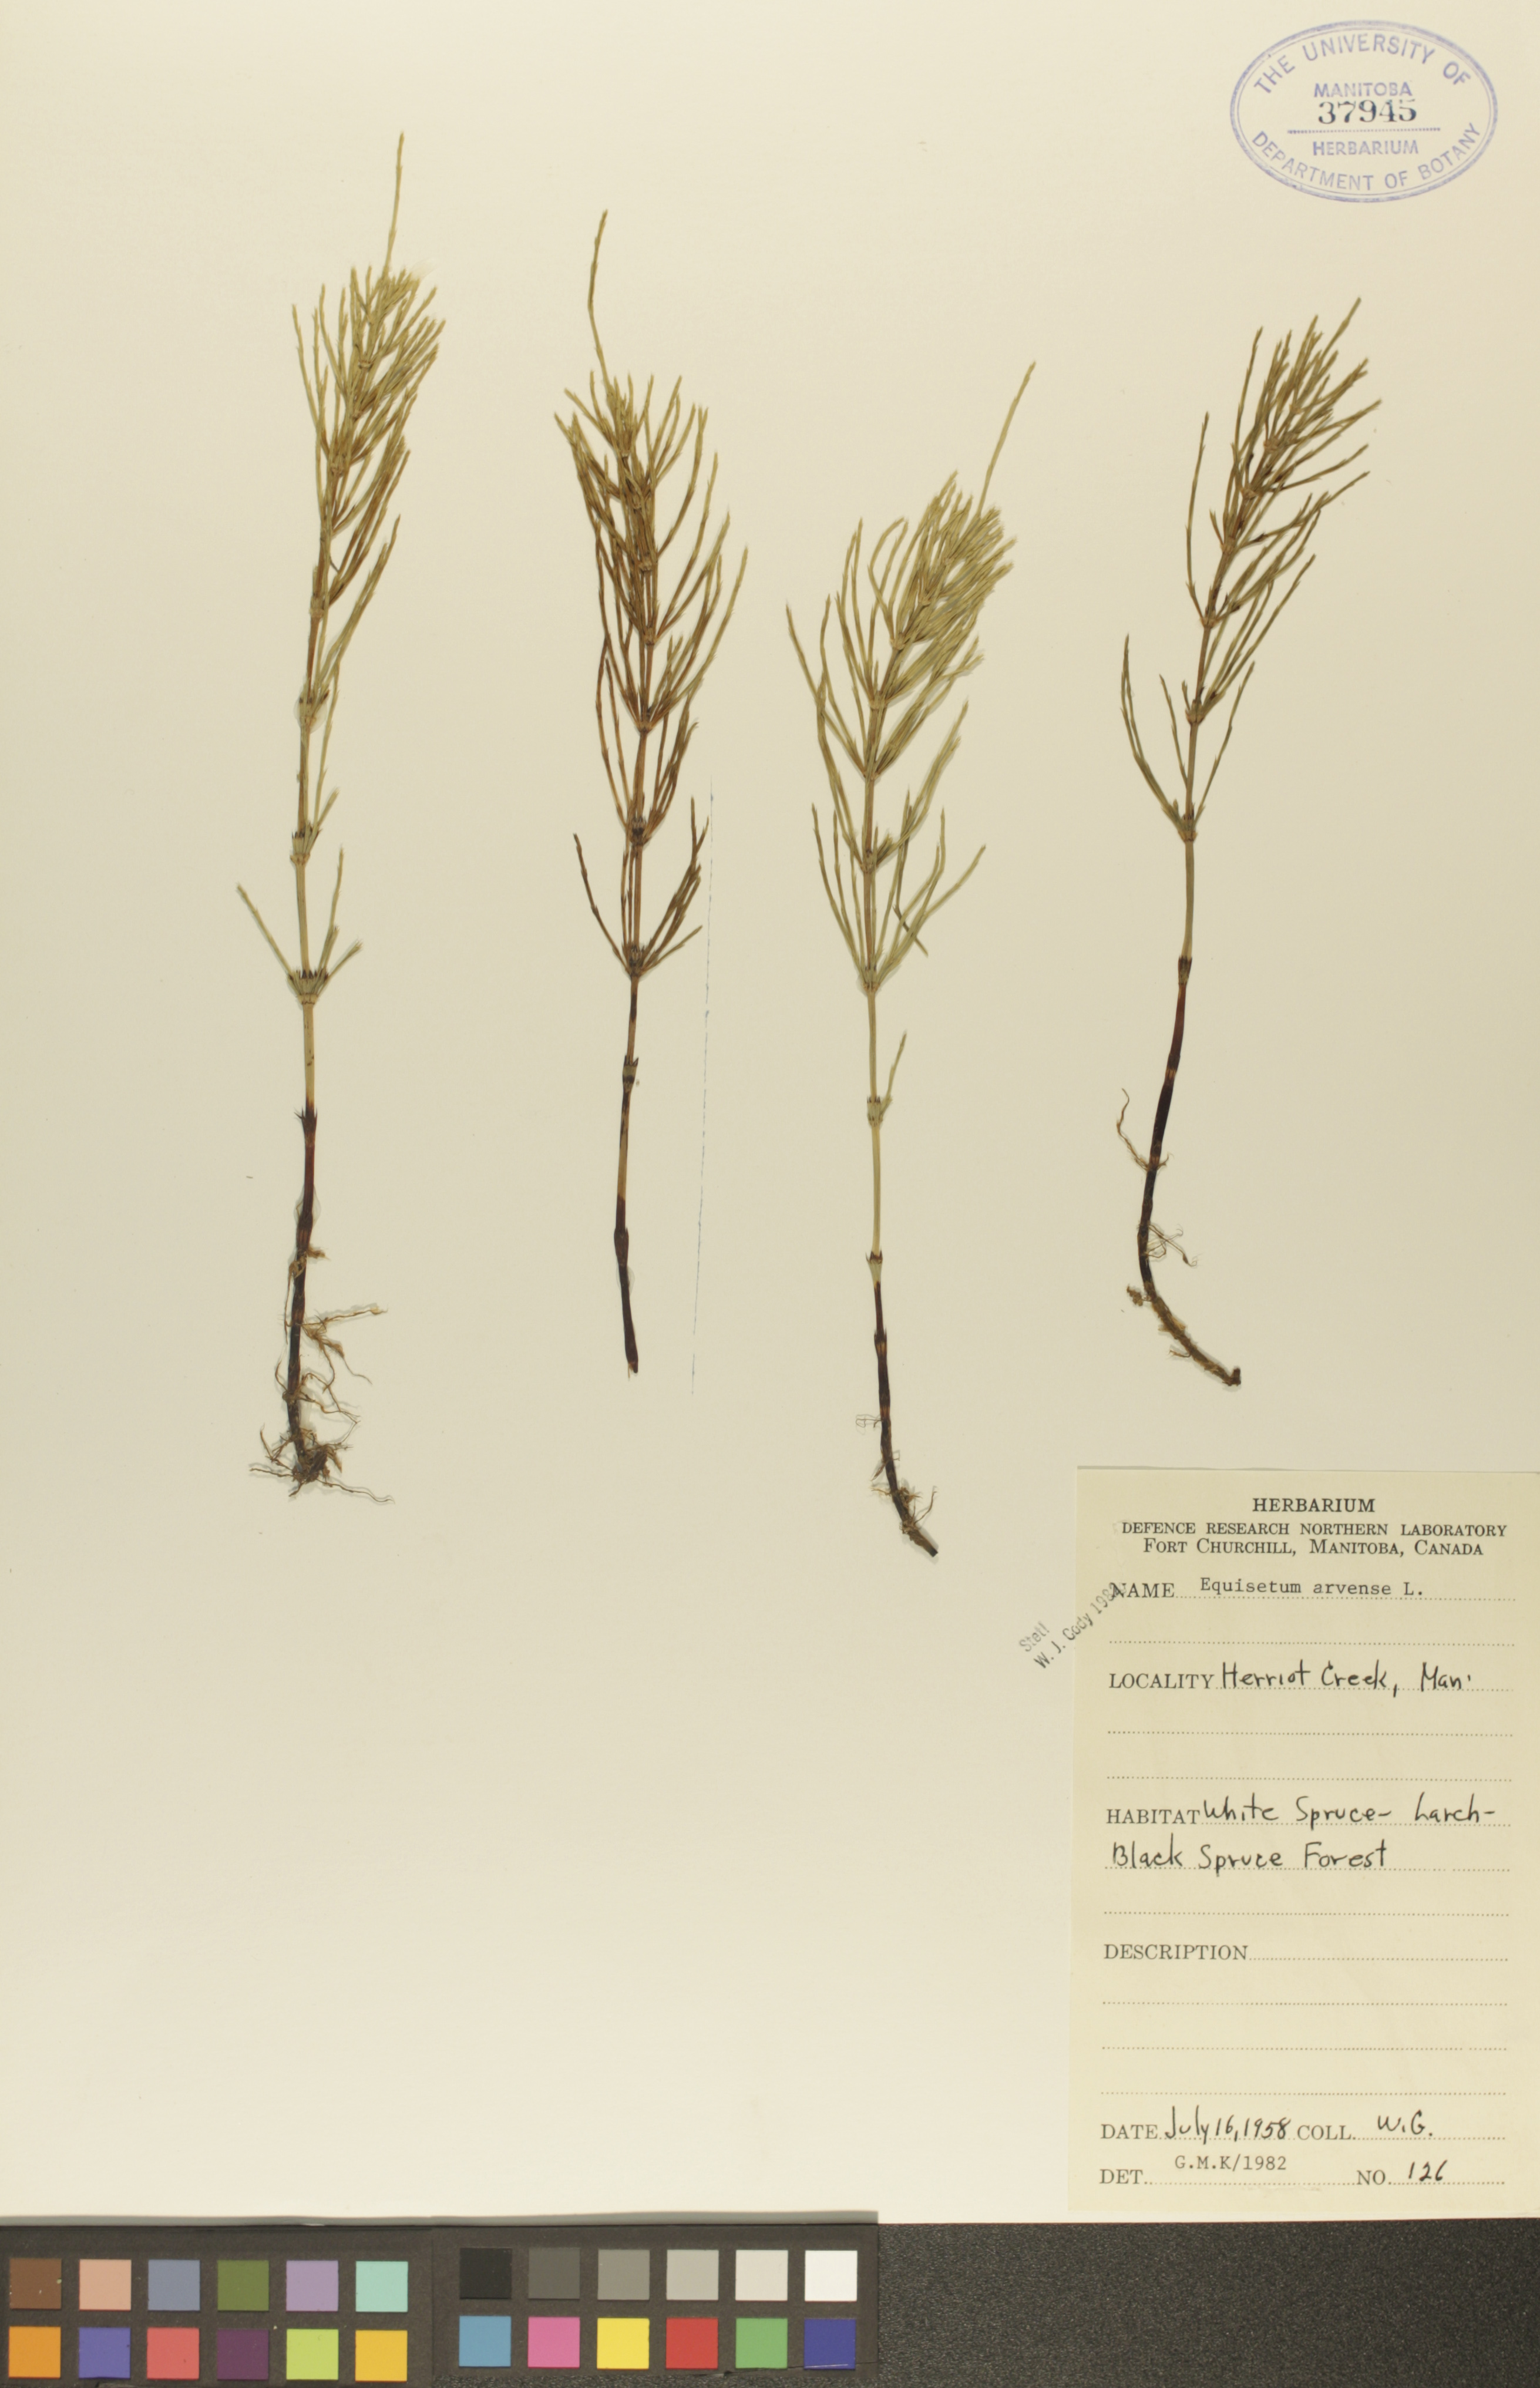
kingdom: Plantae
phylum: Tracheophyta
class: Polypodiopsida
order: Equisetales
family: Equisetaceae
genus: Equisetum
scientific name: Equisetum arvense
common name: Field horsetail
